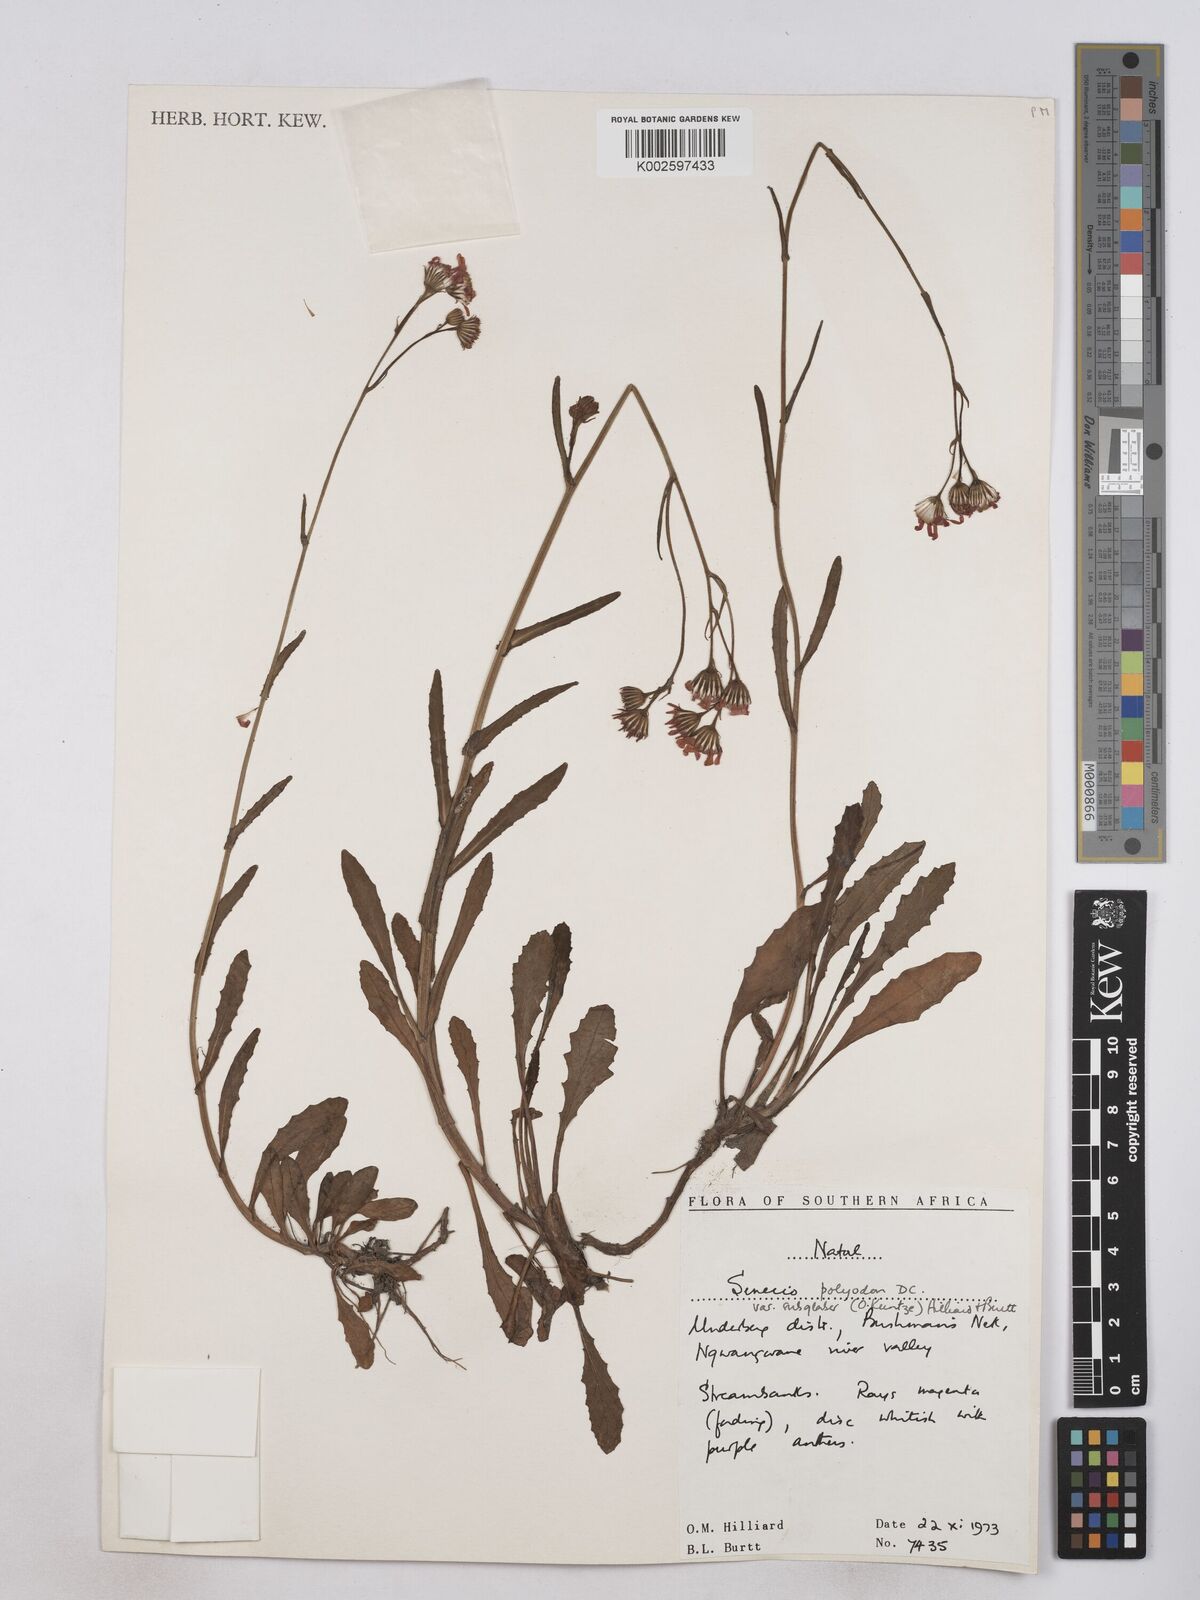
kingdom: Plantae
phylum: Tracheophyta
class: Magnoliopsida
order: Asterales
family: Asteraceae
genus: Senecio
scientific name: Senecio polyodon
